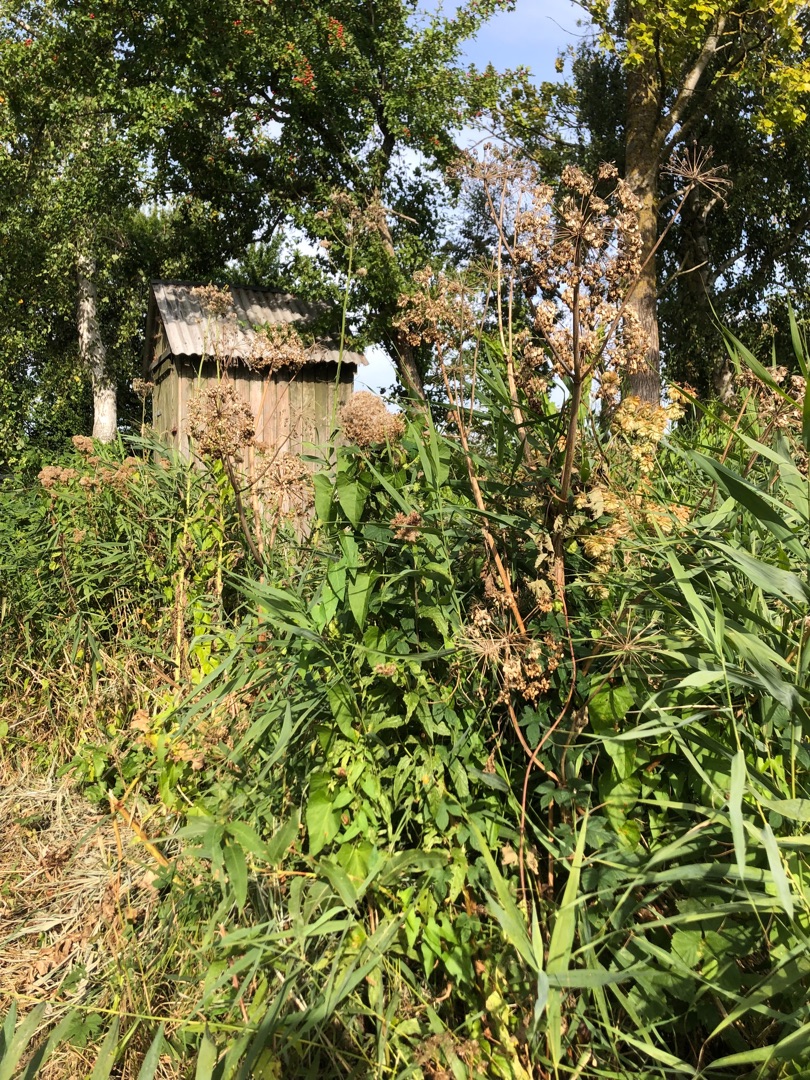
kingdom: Plantae
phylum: Tracheophyta
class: Magnoliopsida
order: Apiales
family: Apiaceae
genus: Angelica
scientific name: Angelica archangelica
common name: Strand-kvan
